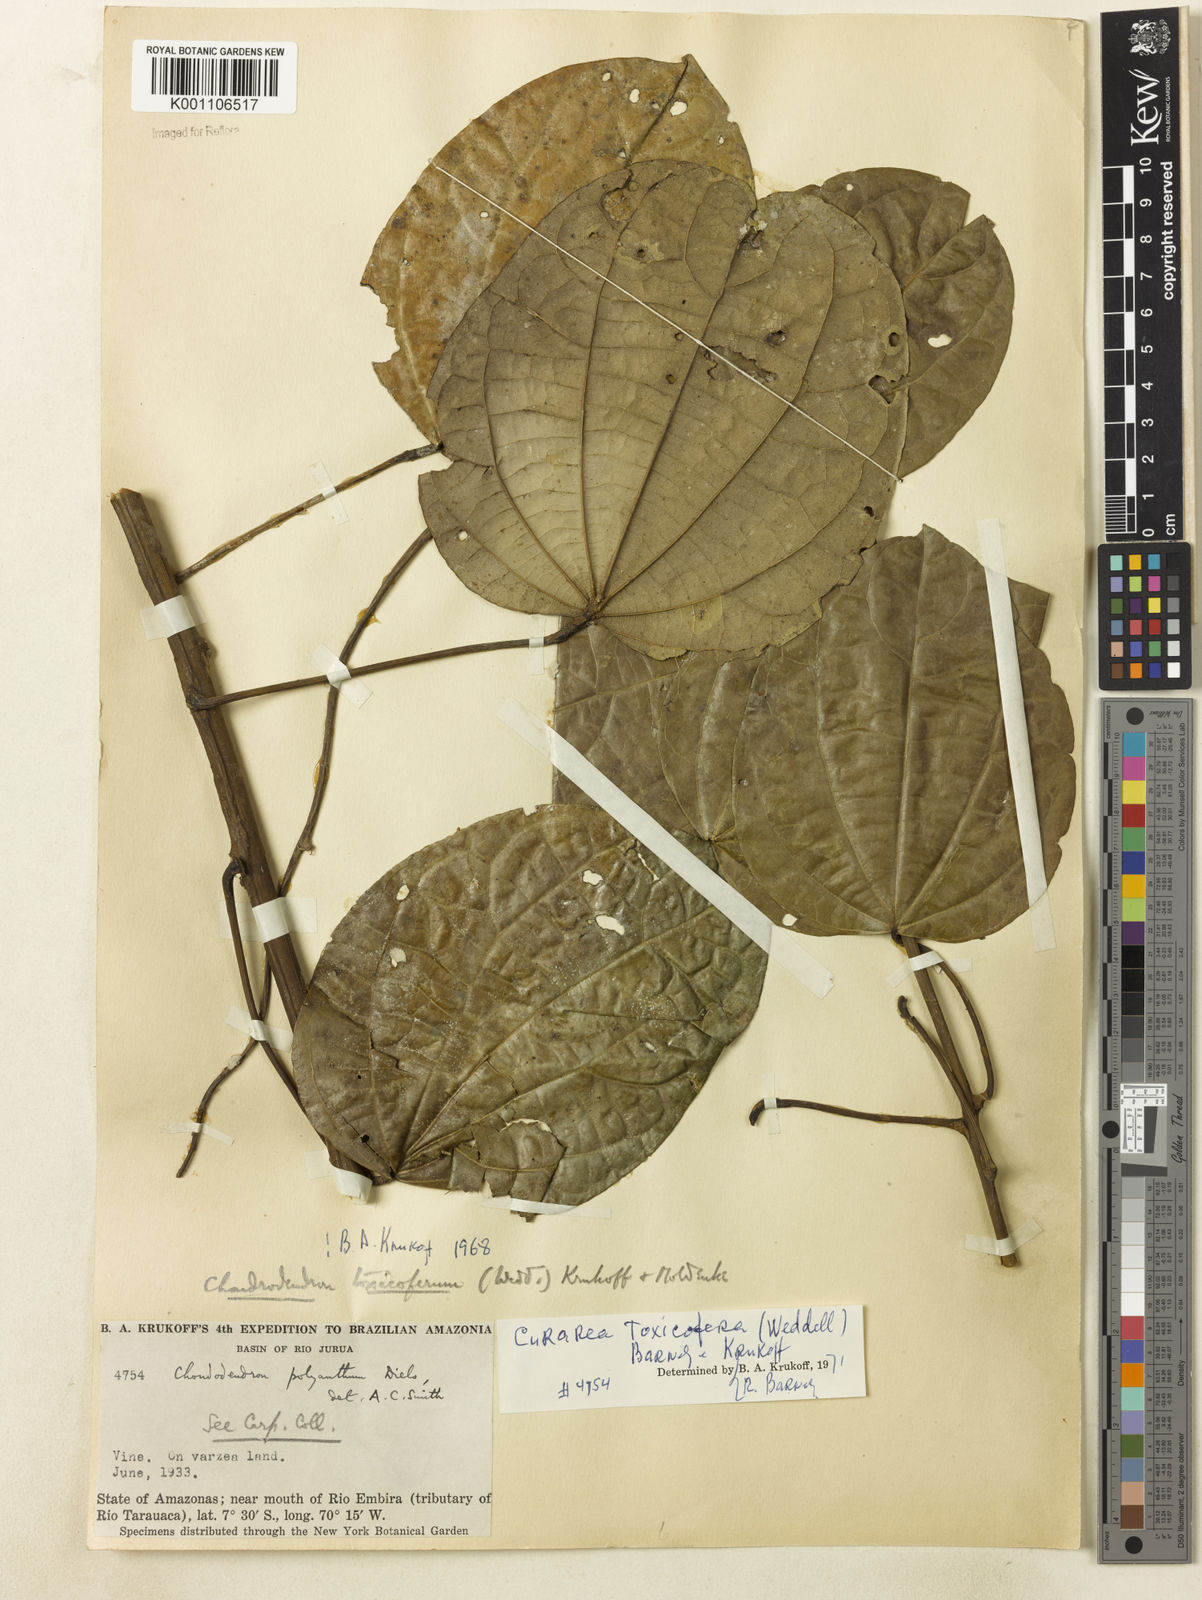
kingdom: Plantae
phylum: Tracheophyta
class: Magnoliopsida
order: Ranunculales
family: Menispermaceae
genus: Curarea
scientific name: Curarea toxicofera
